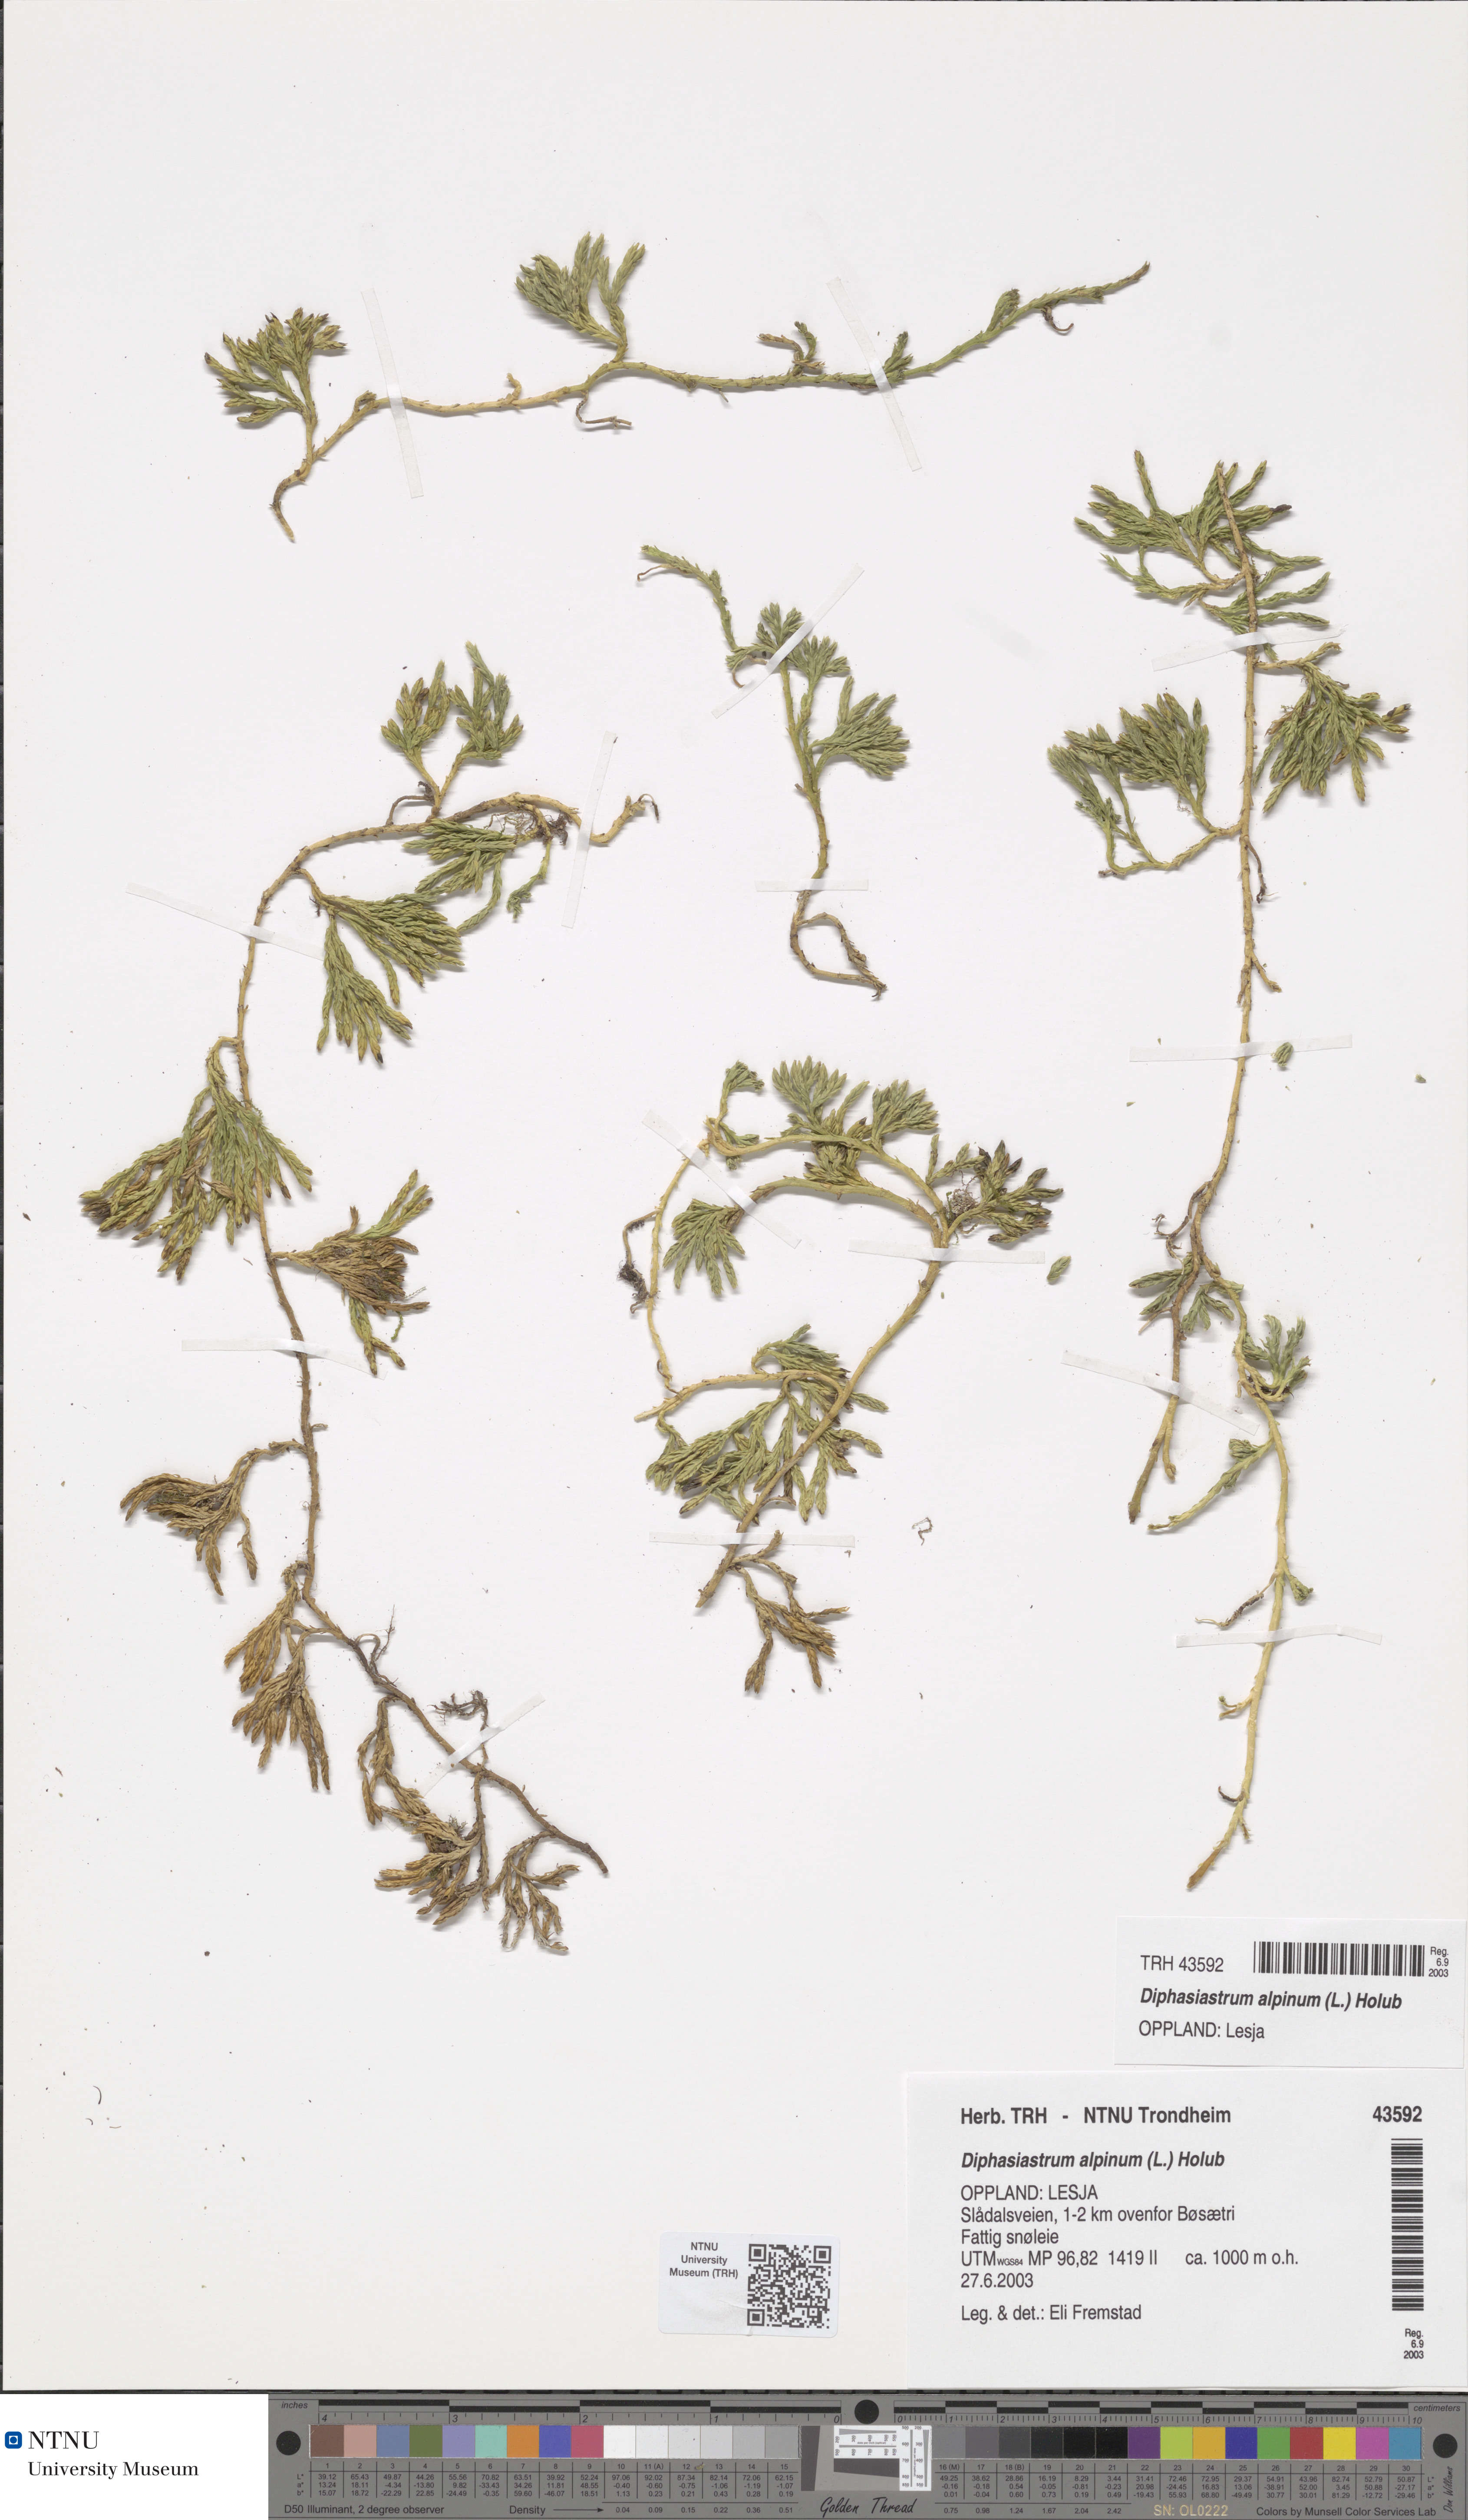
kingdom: Plantae
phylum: Tracheophyta
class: Lycopodiopsida
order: Lycopodiales
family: Lycopodiaceae
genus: Diphasiastrum
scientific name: Diphasiastrum alpinum
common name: Alpine clubmoss
